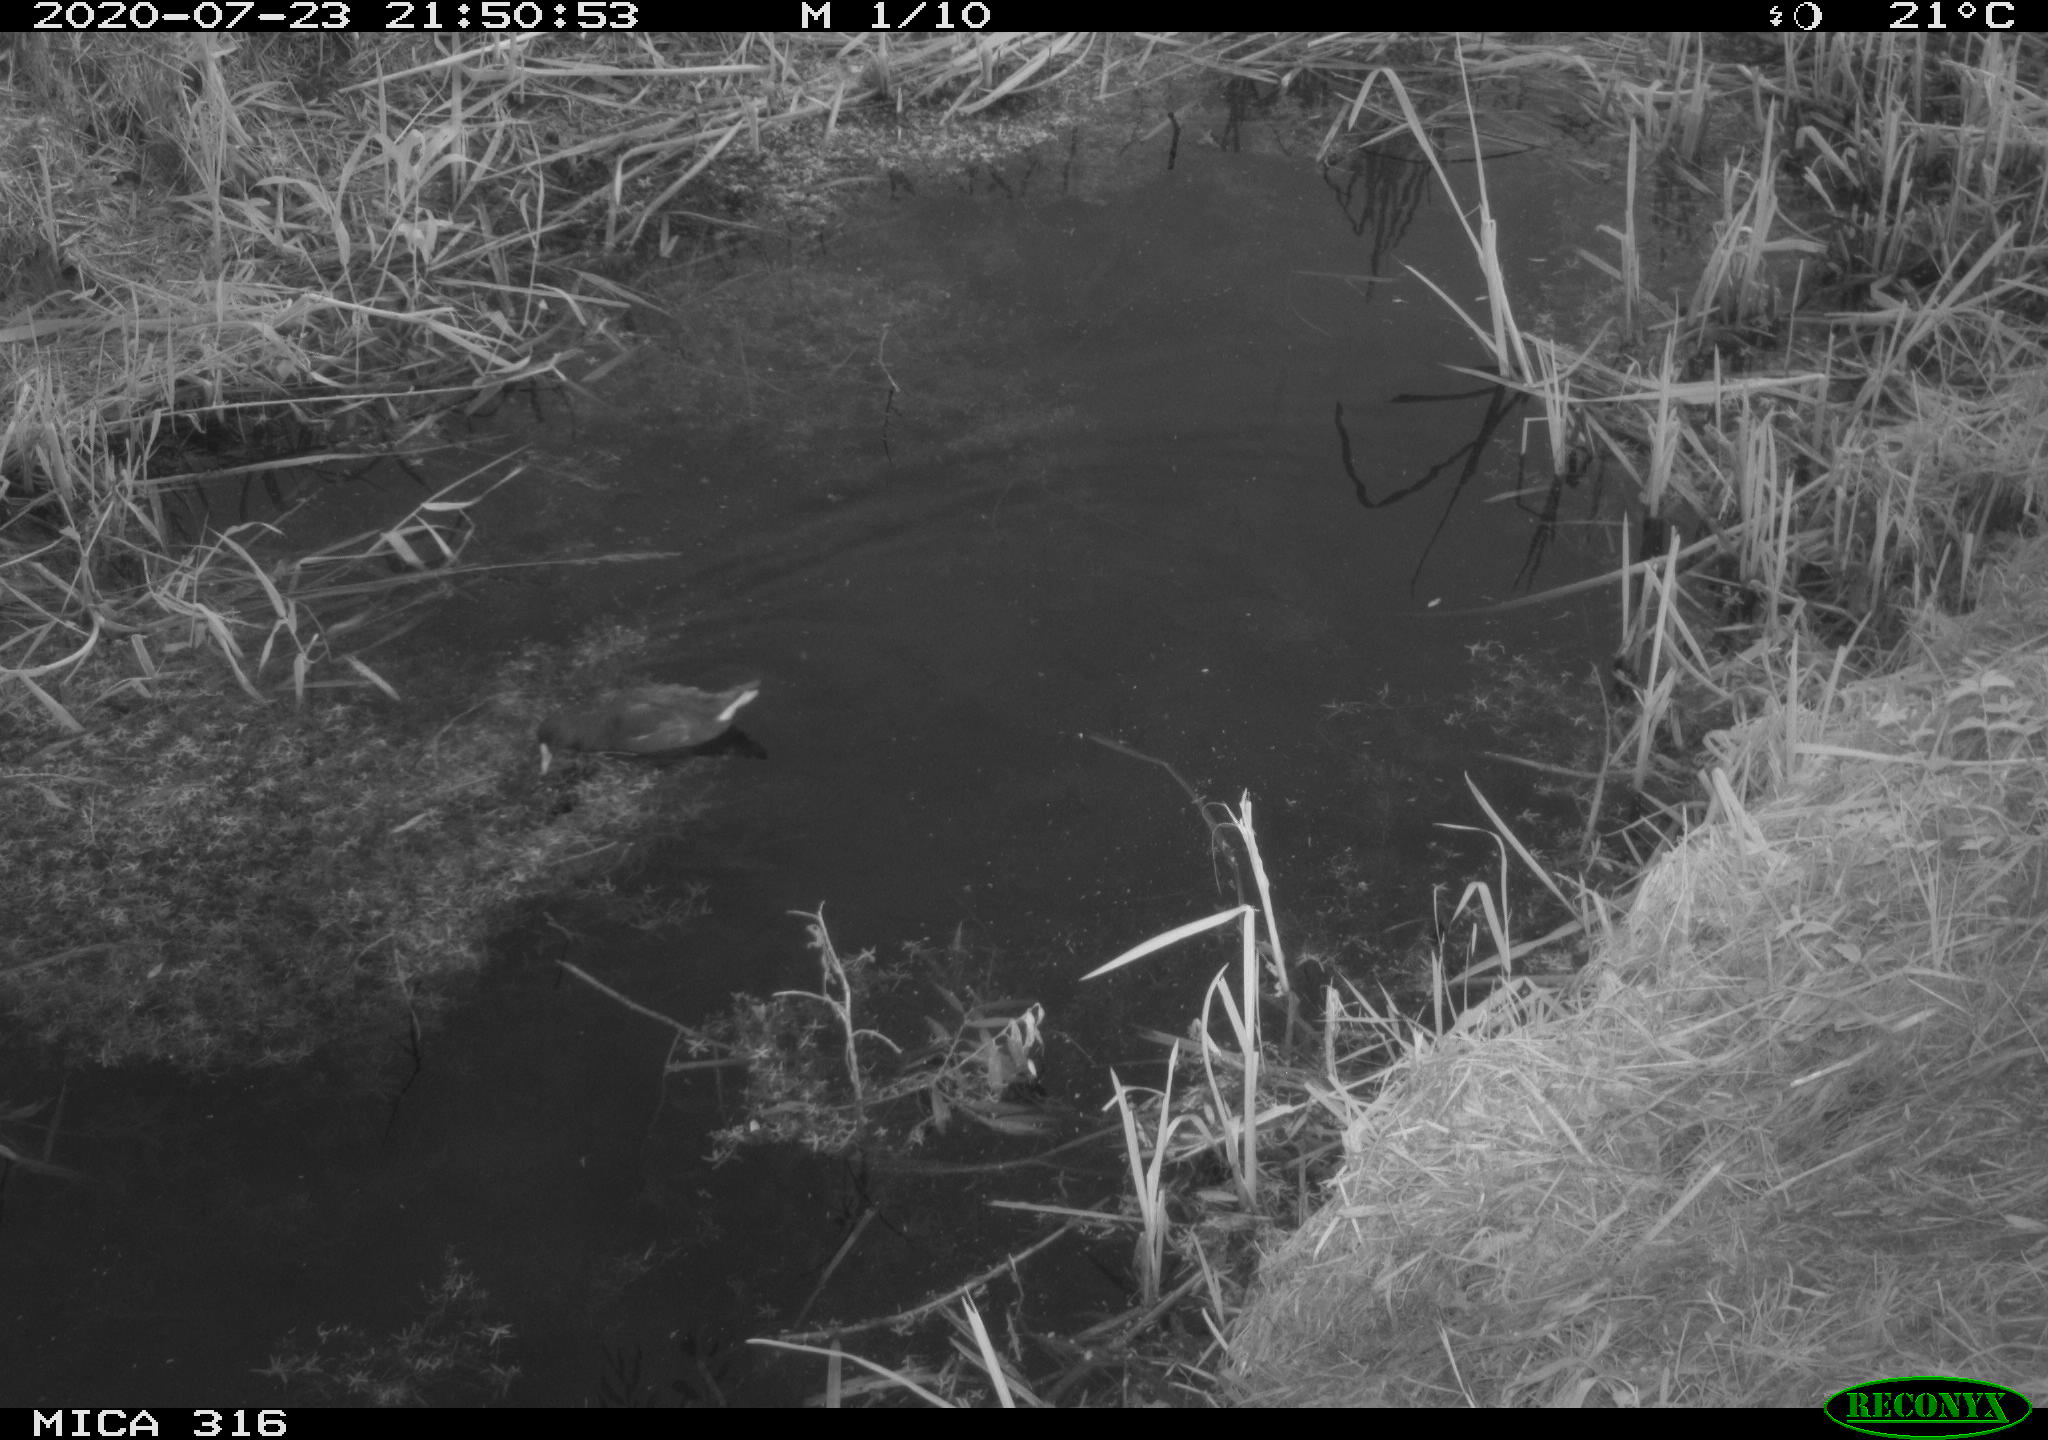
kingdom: Animalia
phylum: Chordata
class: Aves
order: Gruiformes
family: Rallidae
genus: Gallinula
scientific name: Gallinula chloropus
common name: Common moorhen
